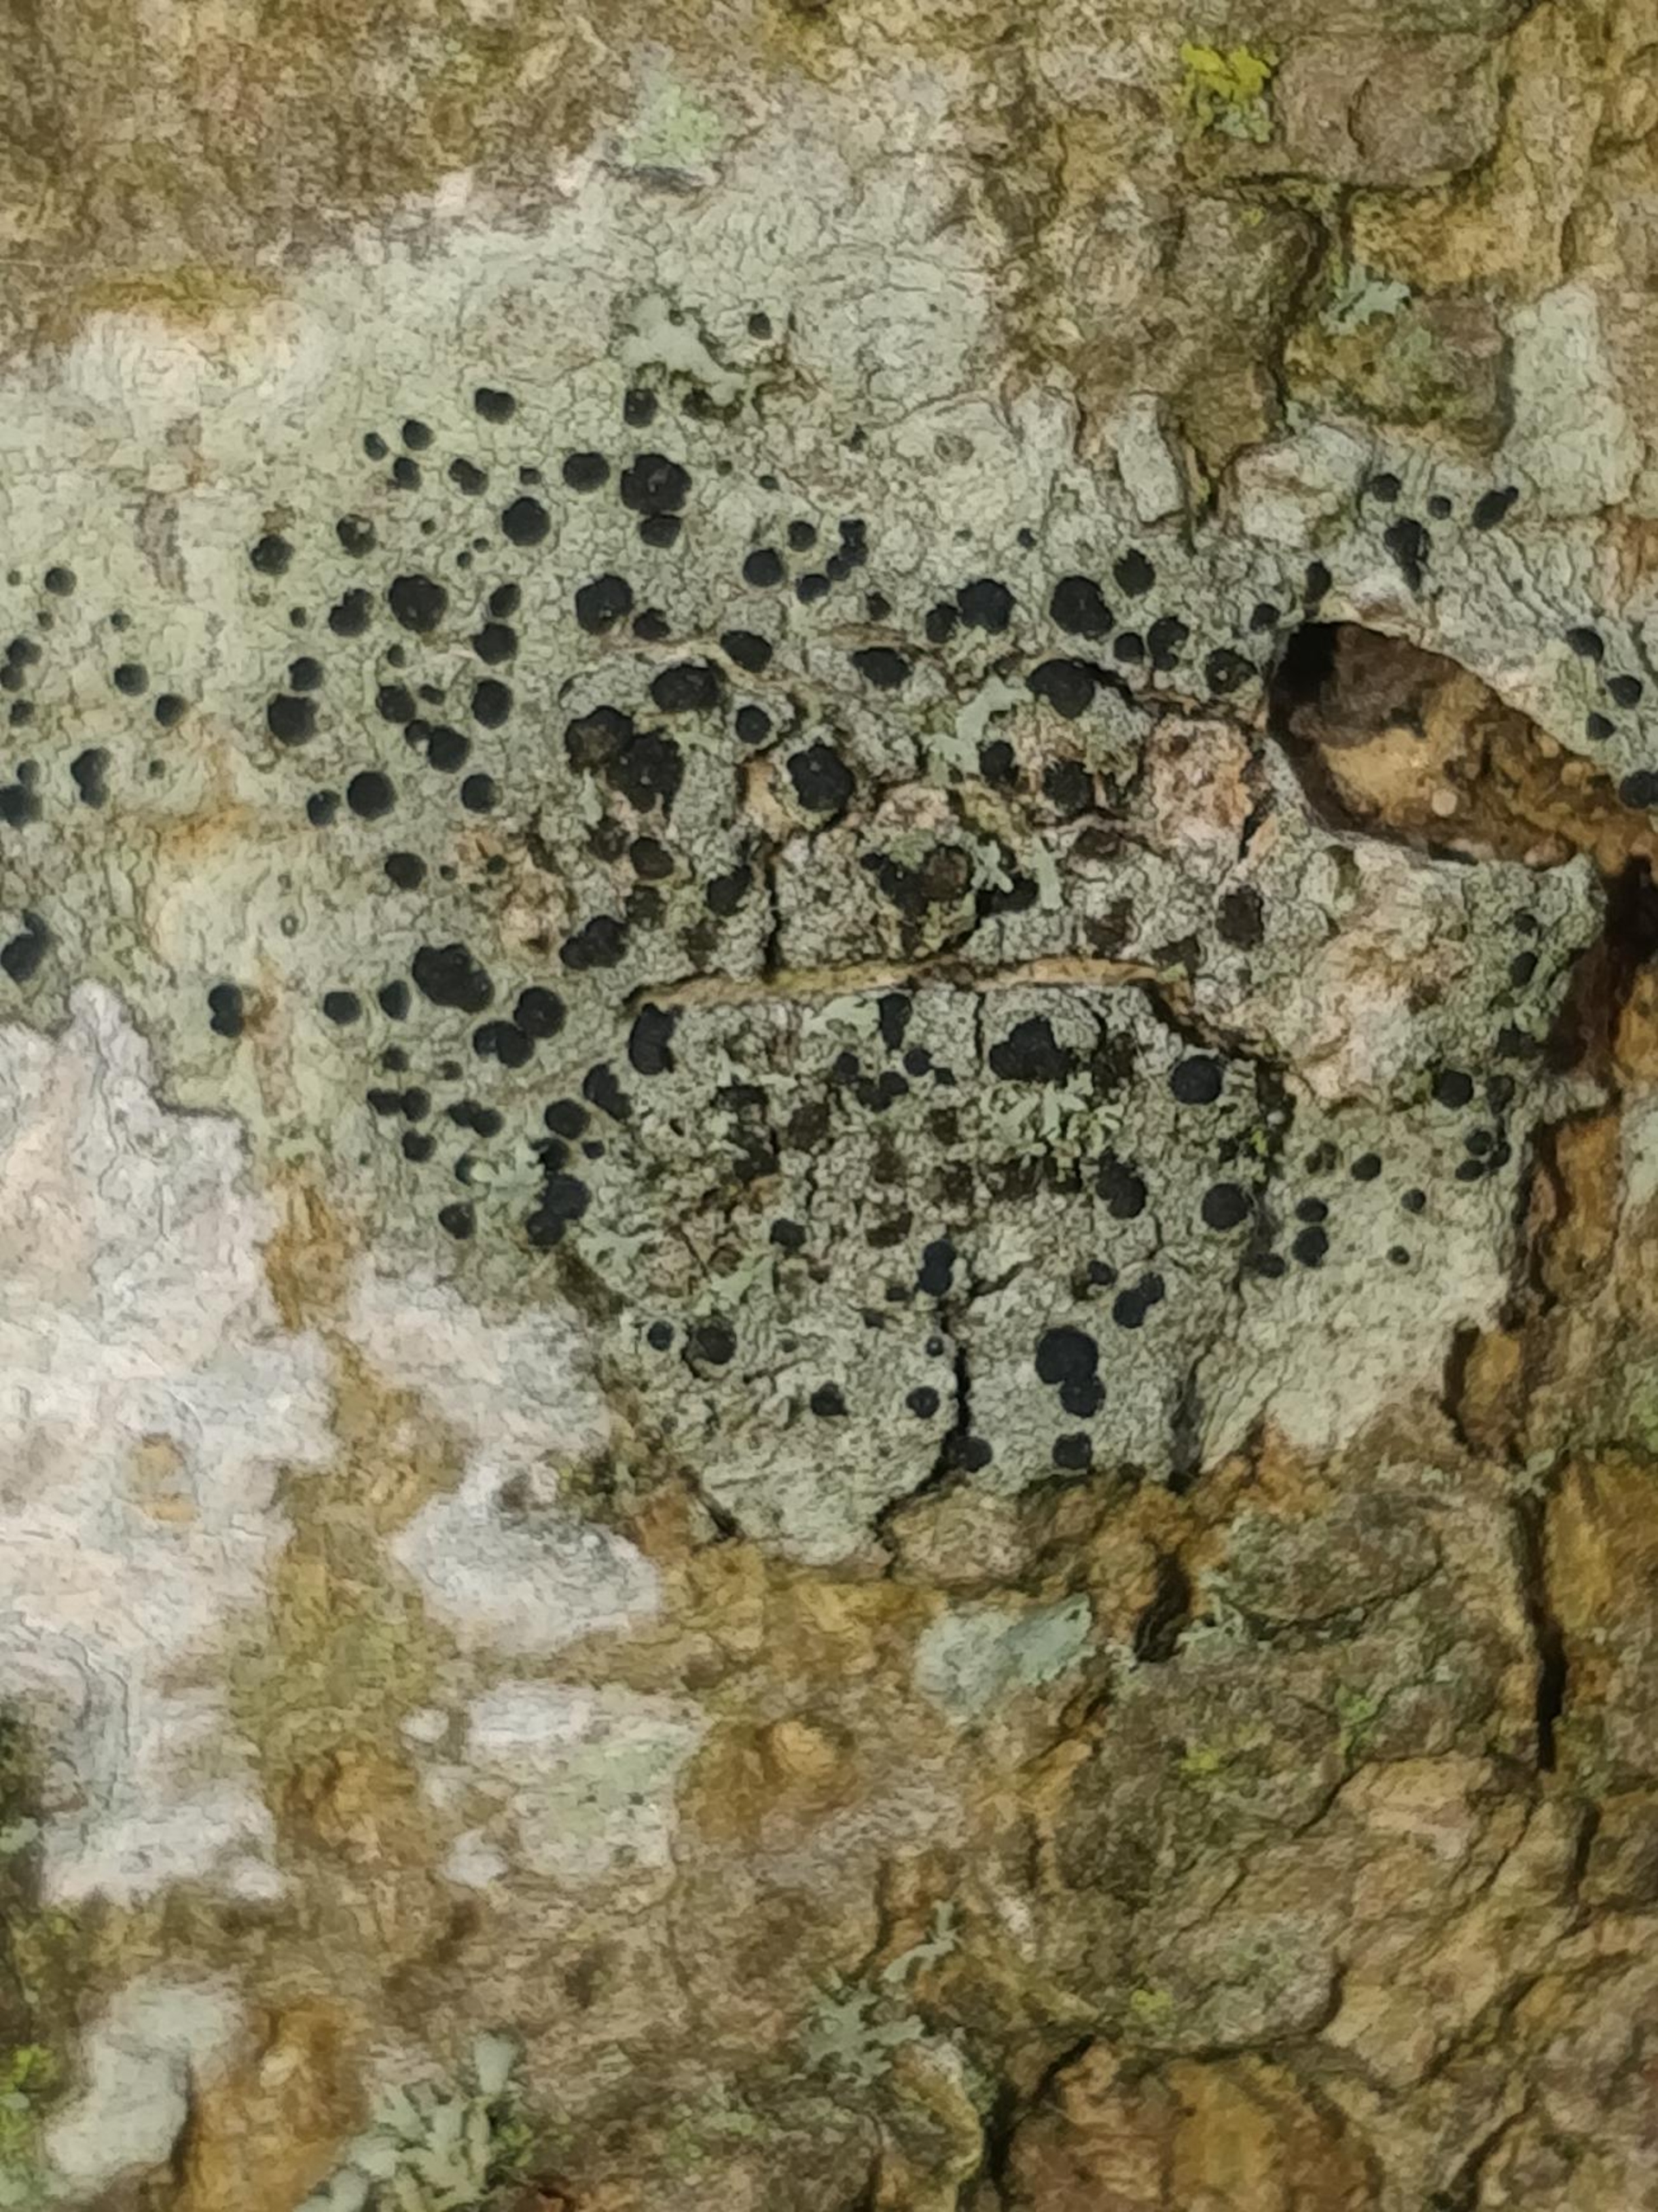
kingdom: Fungi
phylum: Ascomycota
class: Lecanoromycetes
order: Lecanorales
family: Lecanoraceae
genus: Lecidella
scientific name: Lecidella elaeochroma
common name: Grågrøn skivelav
